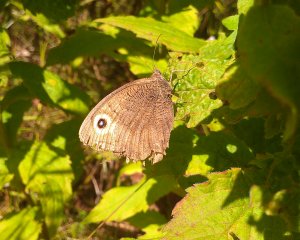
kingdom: Animalia
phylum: Arthropoda
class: Insecta
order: Lepidoptera
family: Nymphalidae
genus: Cercyonis
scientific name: Cercyonis pegala
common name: Common Wood-Nymph
